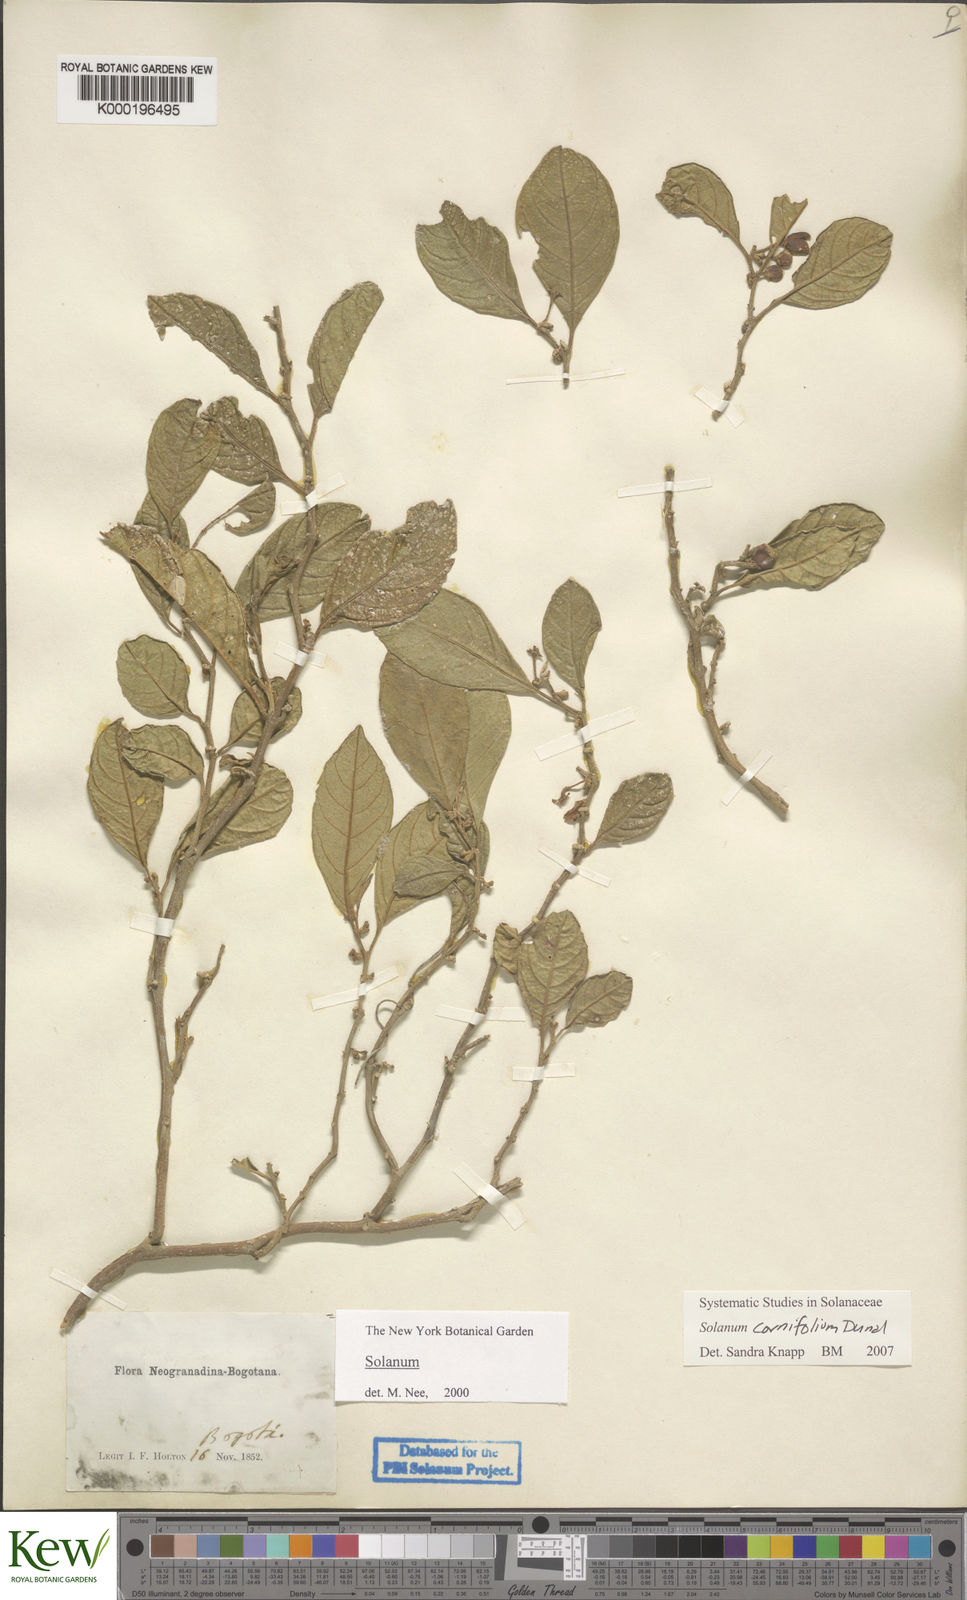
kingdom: Plantae
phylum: Tracheophyta
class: Magnoliopsida
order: Solanales
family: Solanaceae
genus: Solanum
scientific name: Solanum cornifolium
